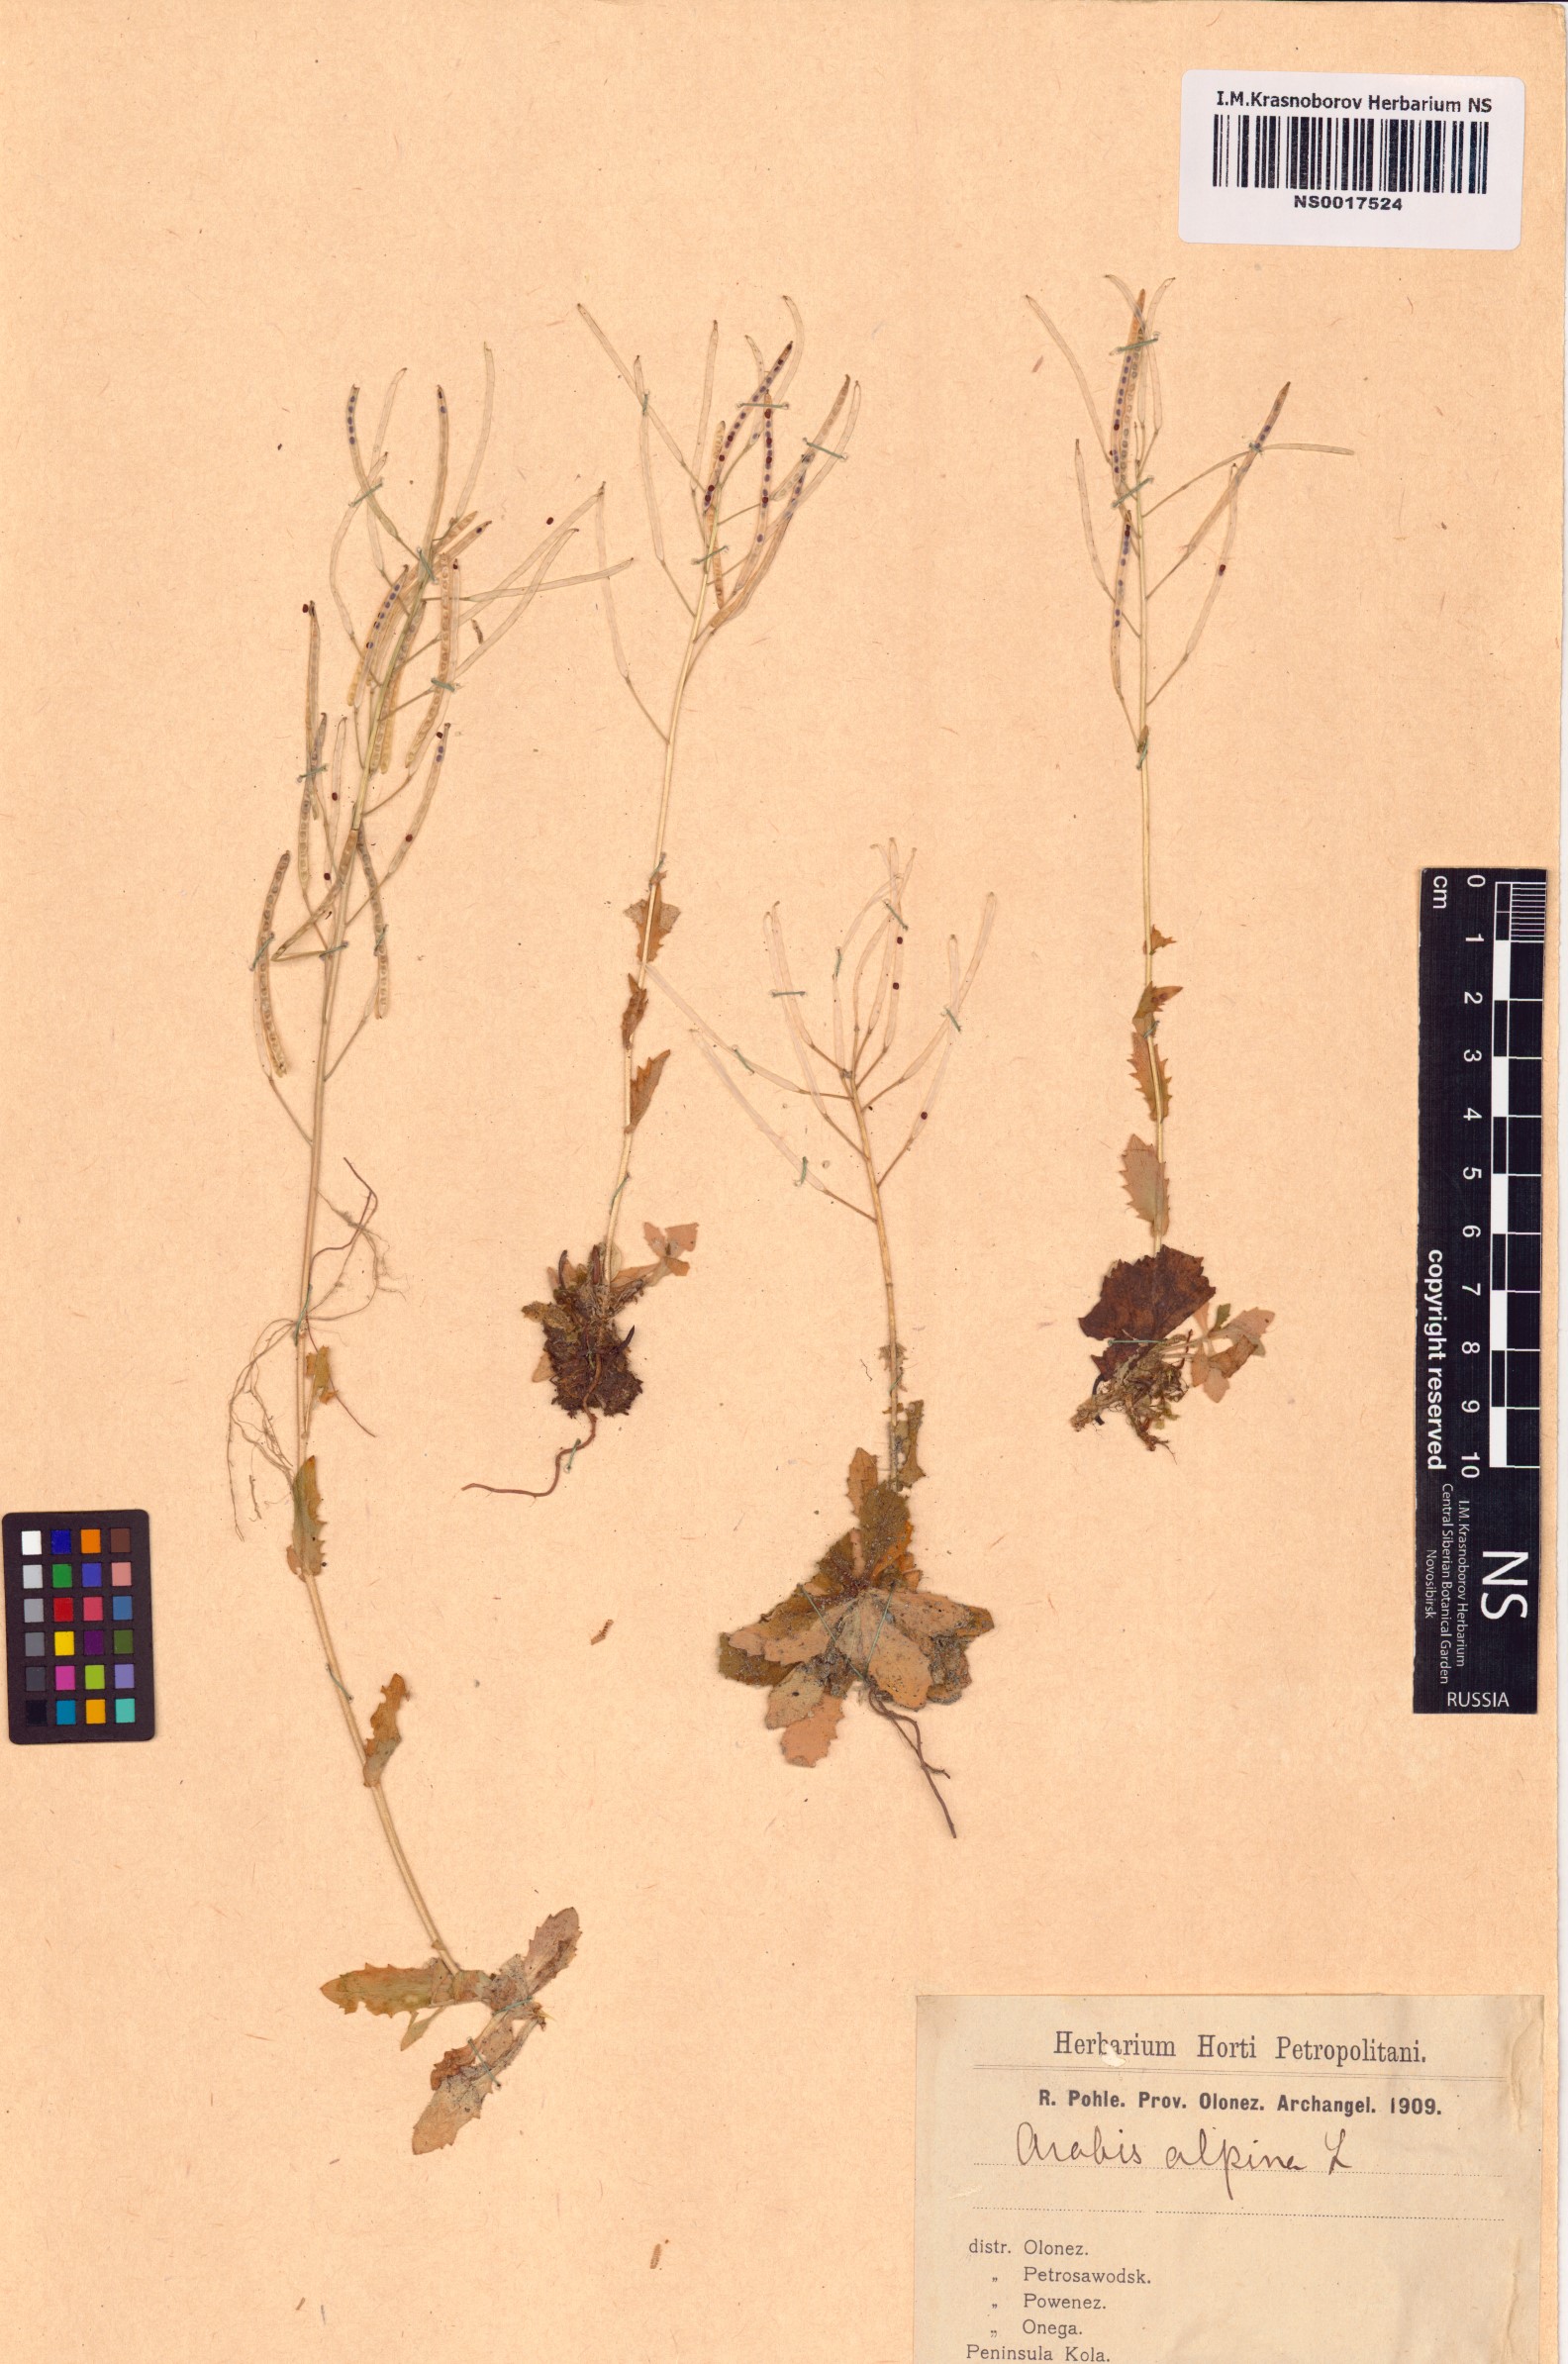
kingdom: Plantae
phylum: Tracheophyta
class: Magnoliopsida
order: Brassicales
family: Brassicaceae
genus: Arabis
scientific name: Arabis alpina
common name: Alpine rock-cress
